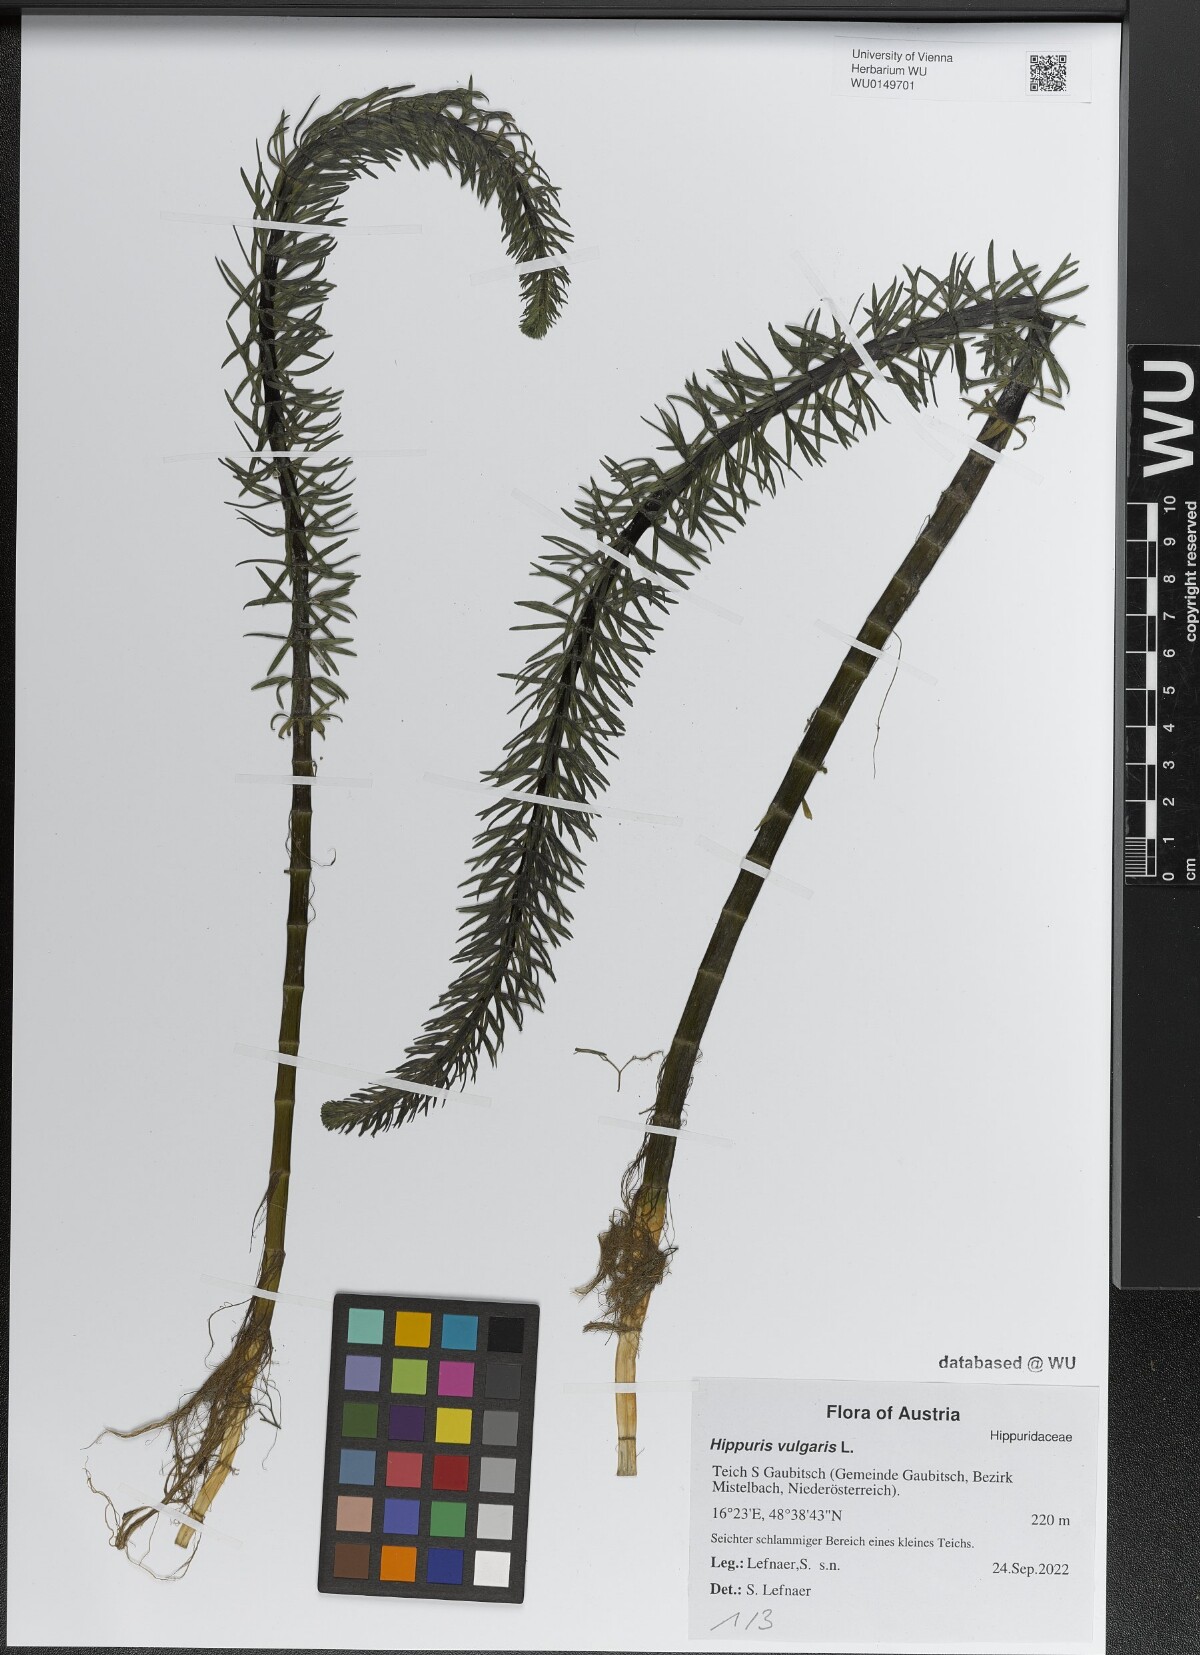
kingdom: Plantae
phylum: Tracheophyta
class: Magnoliopsida
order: Lamiales
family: Plantaginaceae
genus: Hippuris
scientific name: Hippuris vulgaris
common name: Mare's-tail
